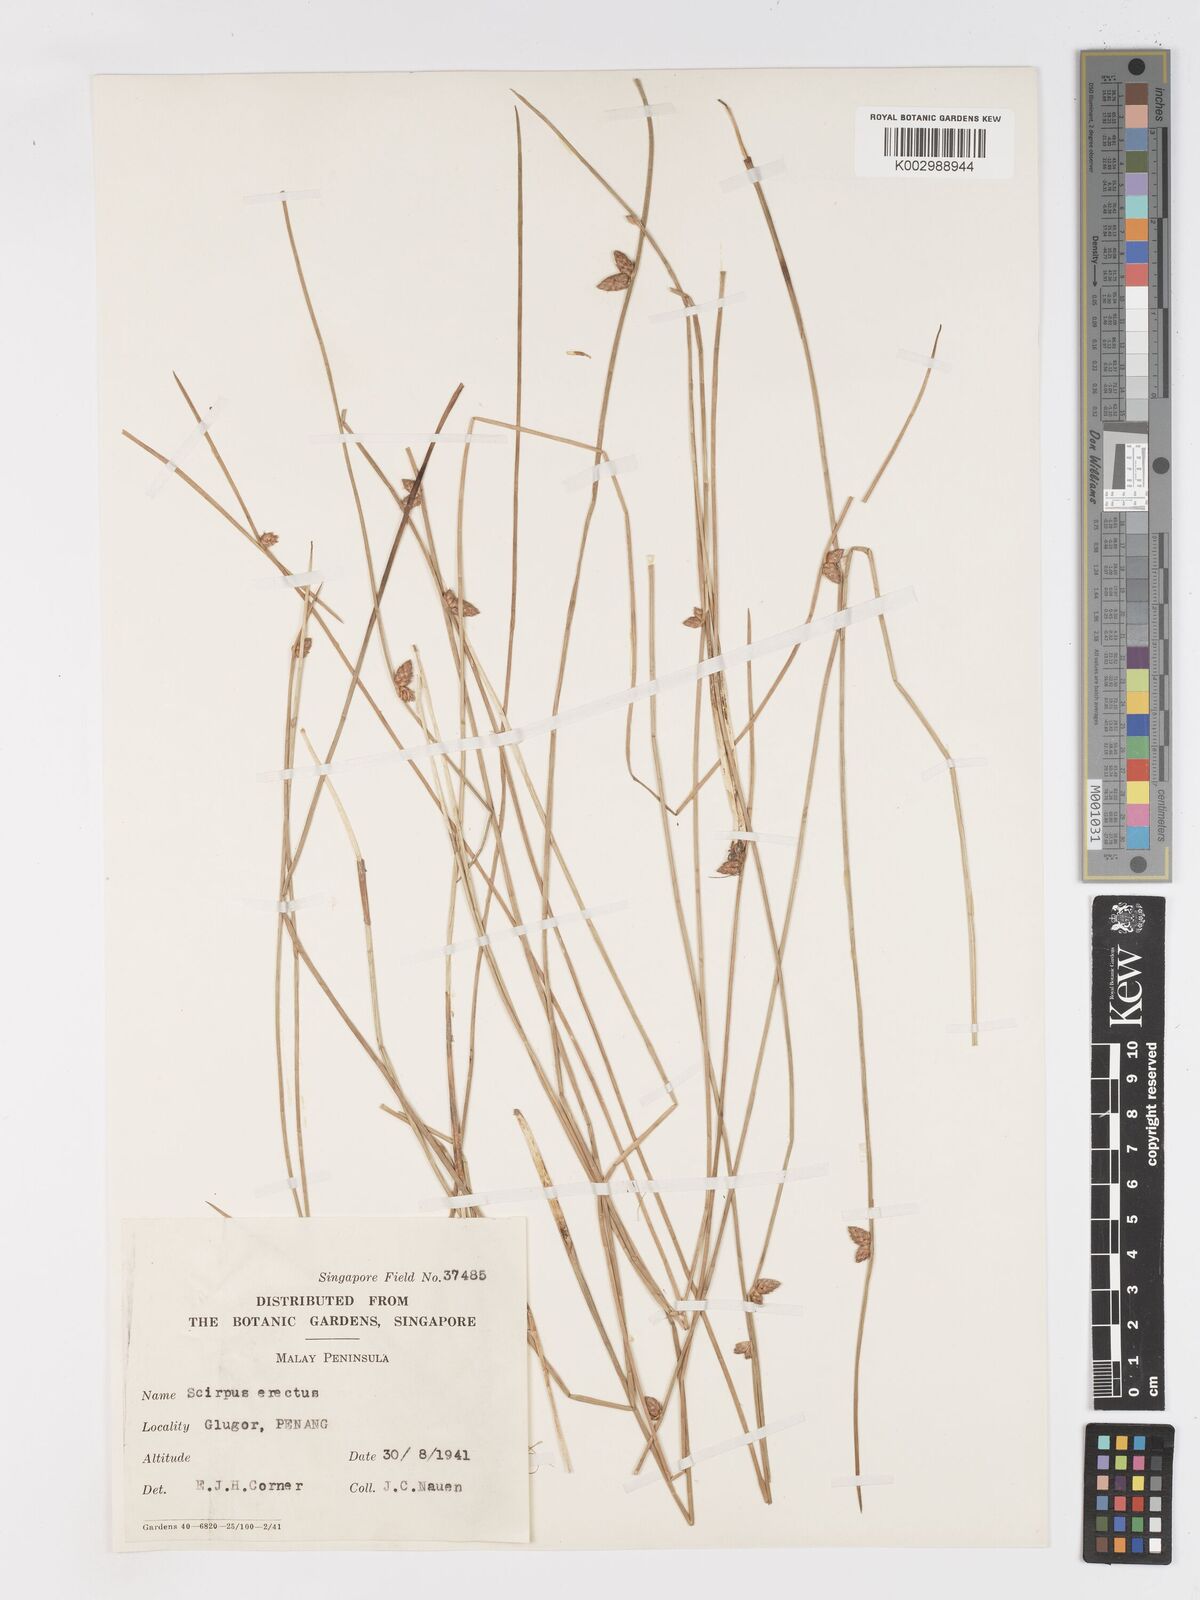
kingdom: Plantae
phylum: Tracheophyta
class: Liliopsida
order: Poales
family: Cyperaceae
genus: Schoenoplectiella
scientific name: Schoenoplectiella juncoides
